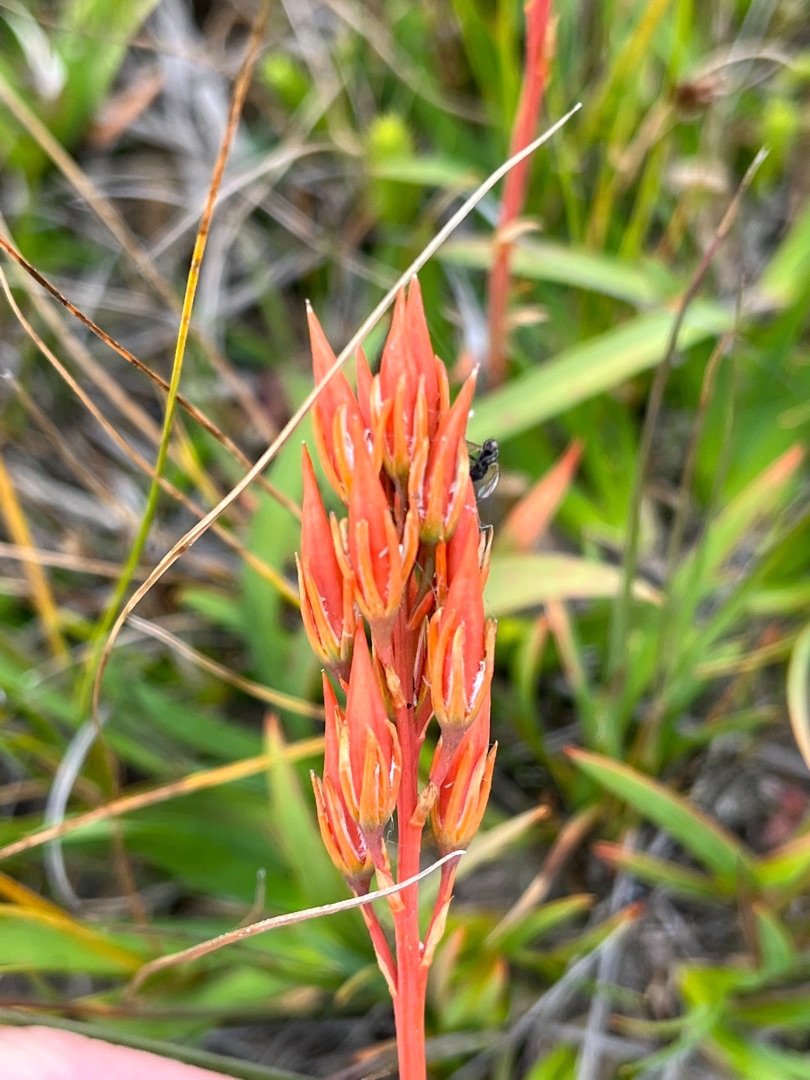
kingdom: Plantae
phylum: Tracheophyta
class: Liliopsida
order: Dioscoreales
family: Nartheciaceae
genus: Narthecium
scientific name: Narthecium ossifragum
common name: Benbræk
